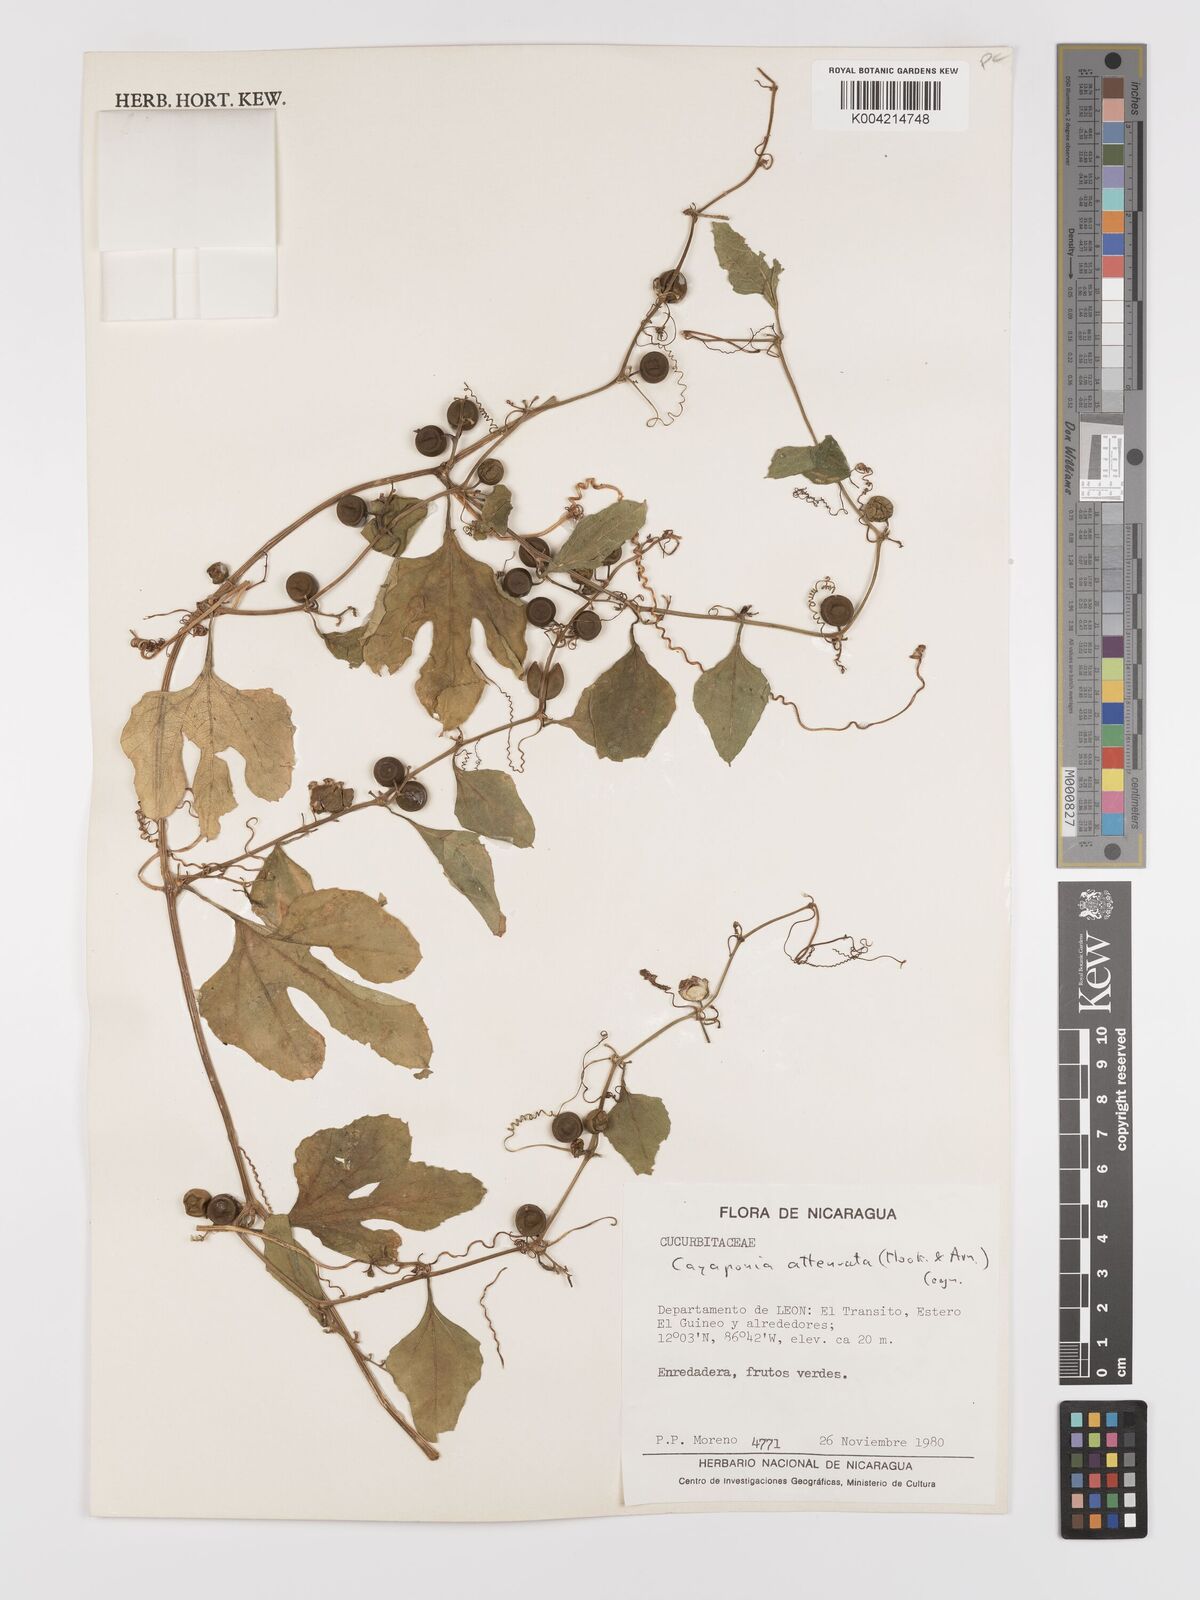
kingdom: Plantae
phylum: Tracheophyta
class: Magnoliopsida
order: Cucurbitales
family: Cucurbitaceae
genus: Cayaponia
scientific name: Cayaponia attenuata
